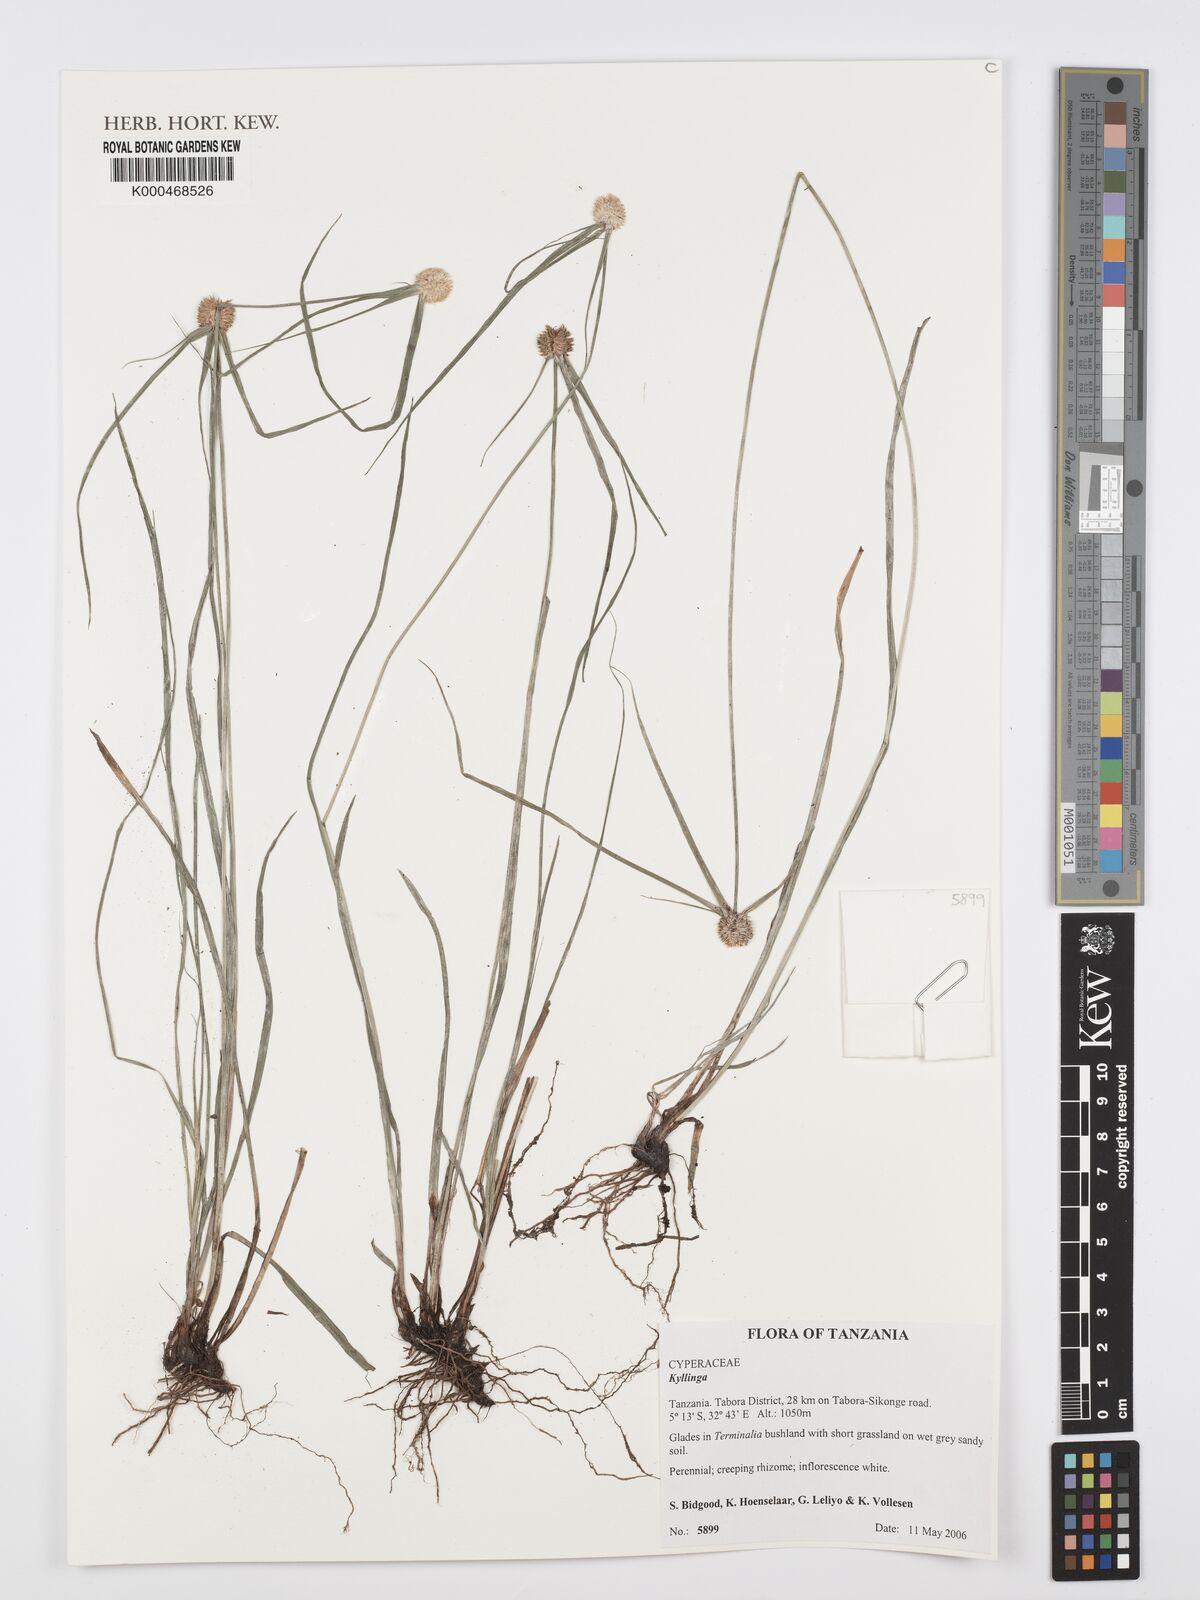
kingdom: Plantae
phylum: Tracheophyta
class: Liliopsida
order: Poales
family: Cyperaceae
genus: Cyperus
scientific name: Cyperus
